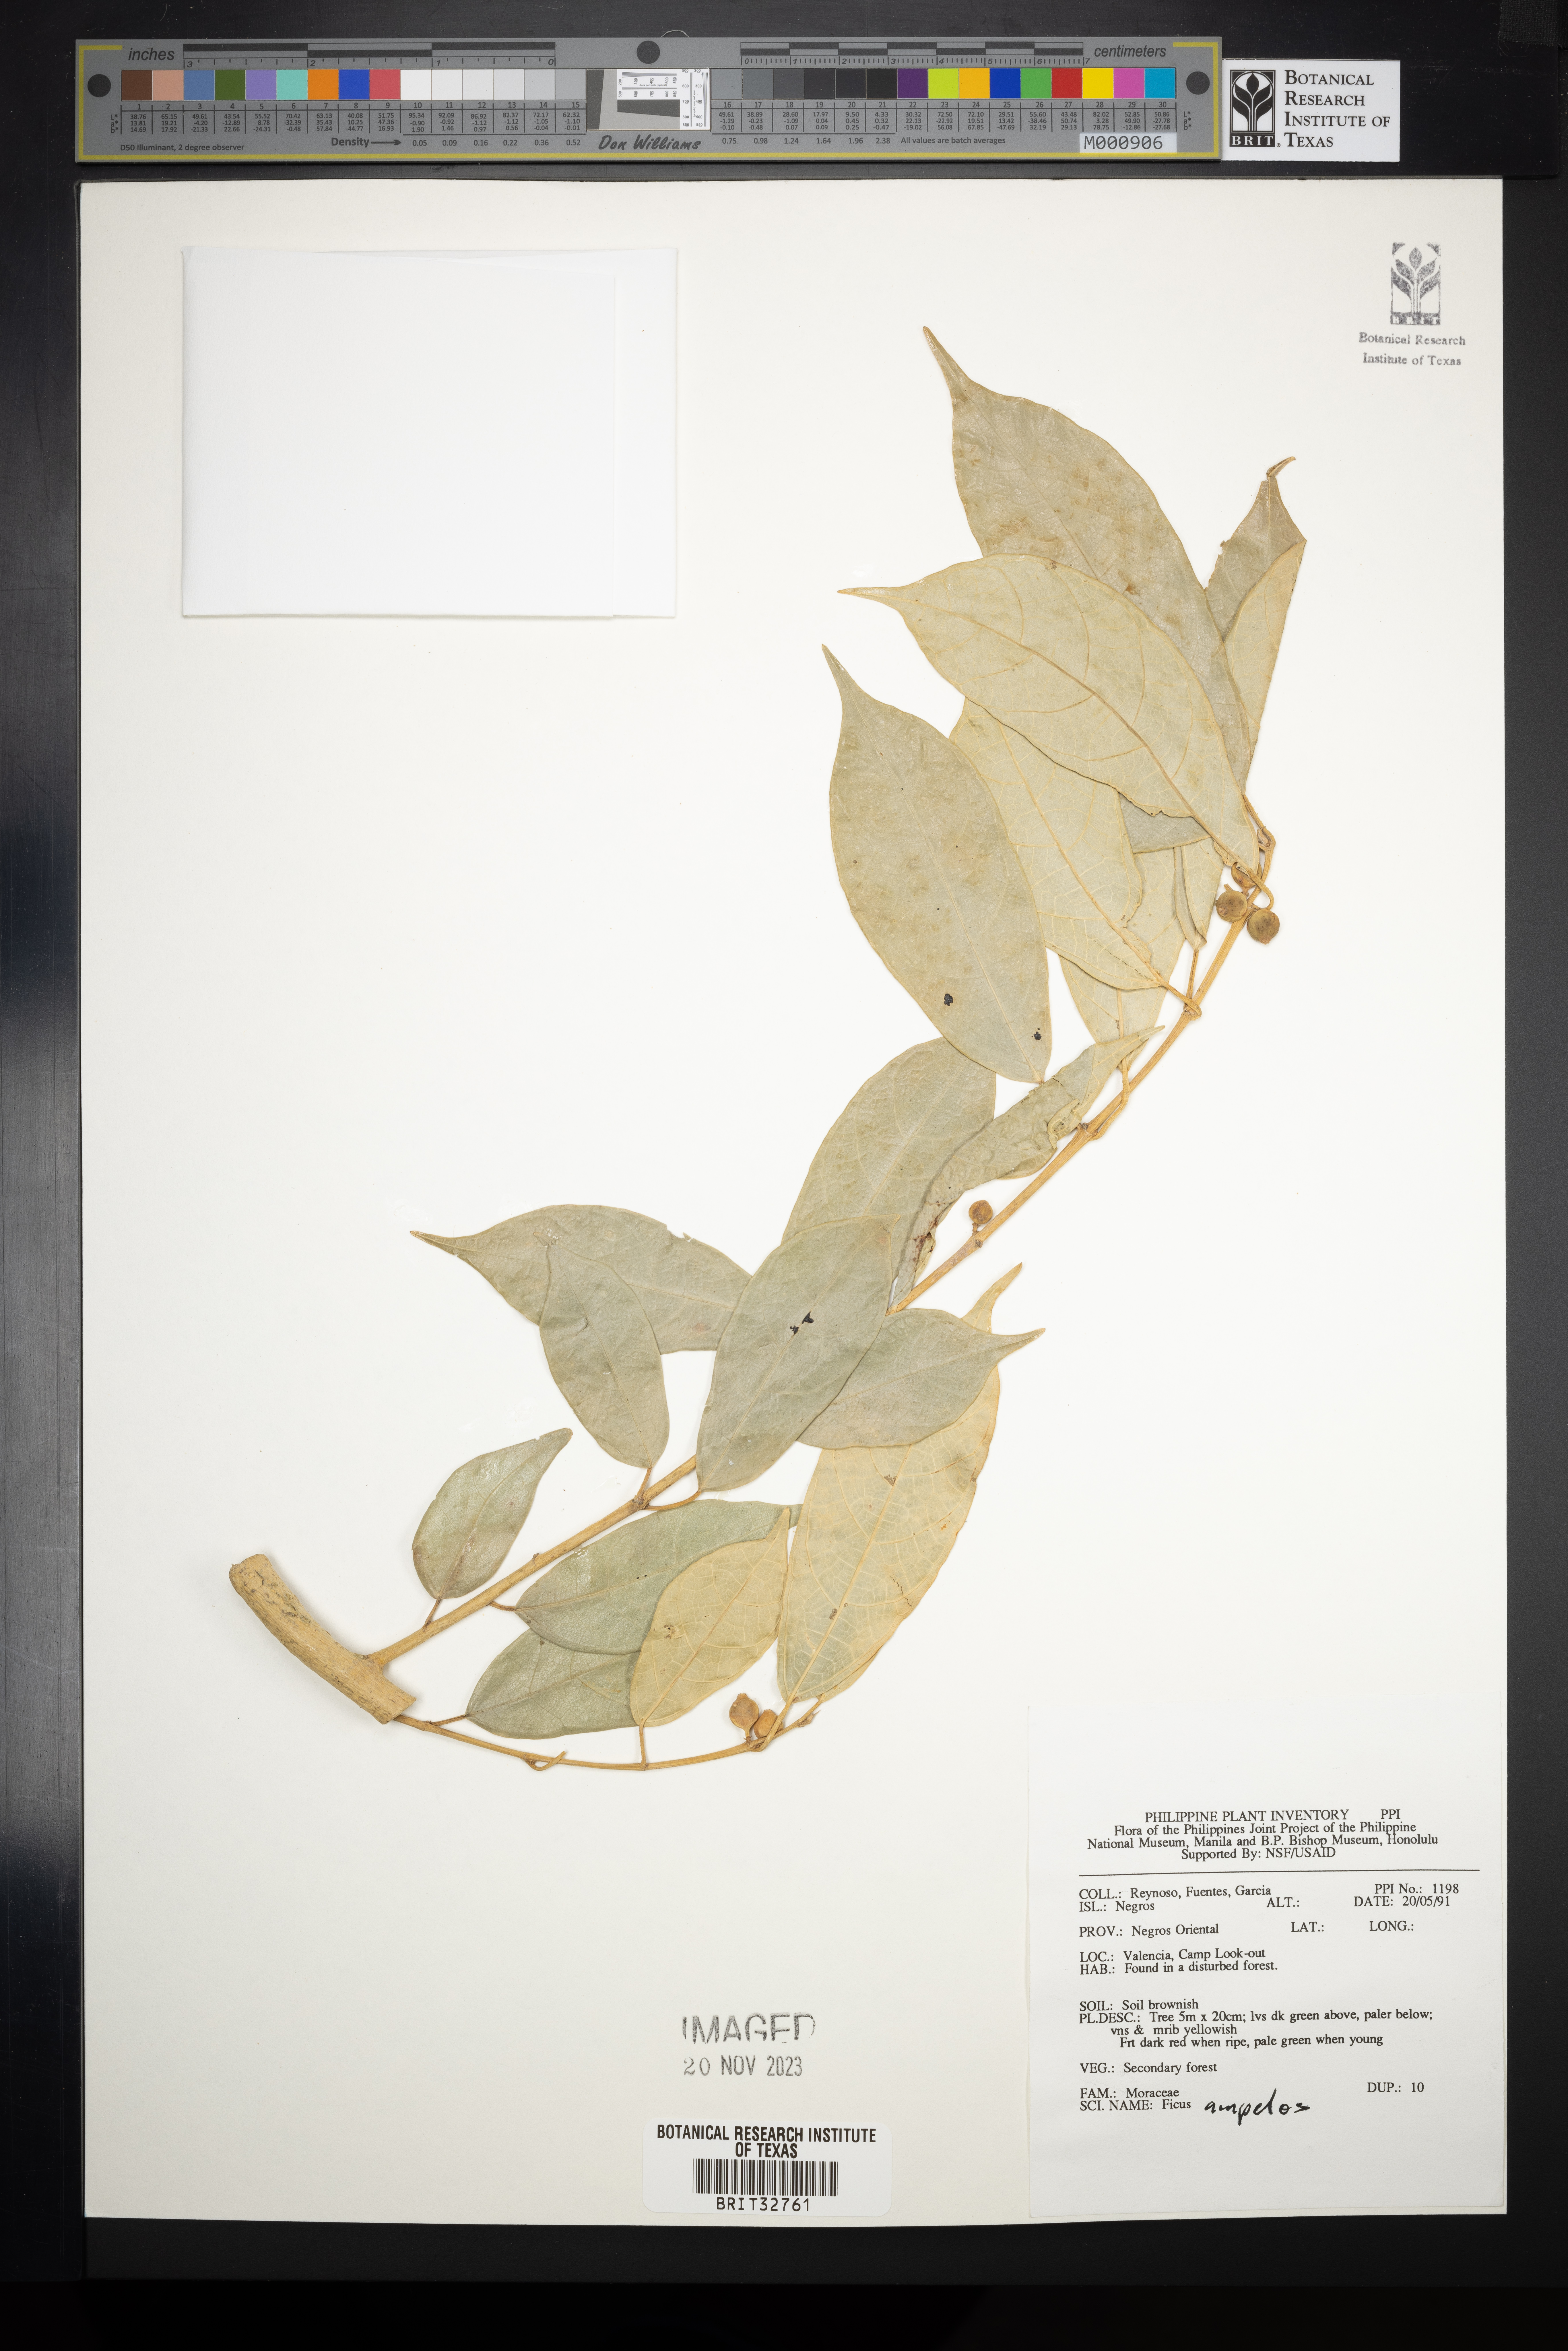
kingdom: Plantae
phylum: Tracheophyta
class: Magnoliopsida
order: Rosales
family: Moraceae
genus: Ficus
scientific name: Ficus ampelos
